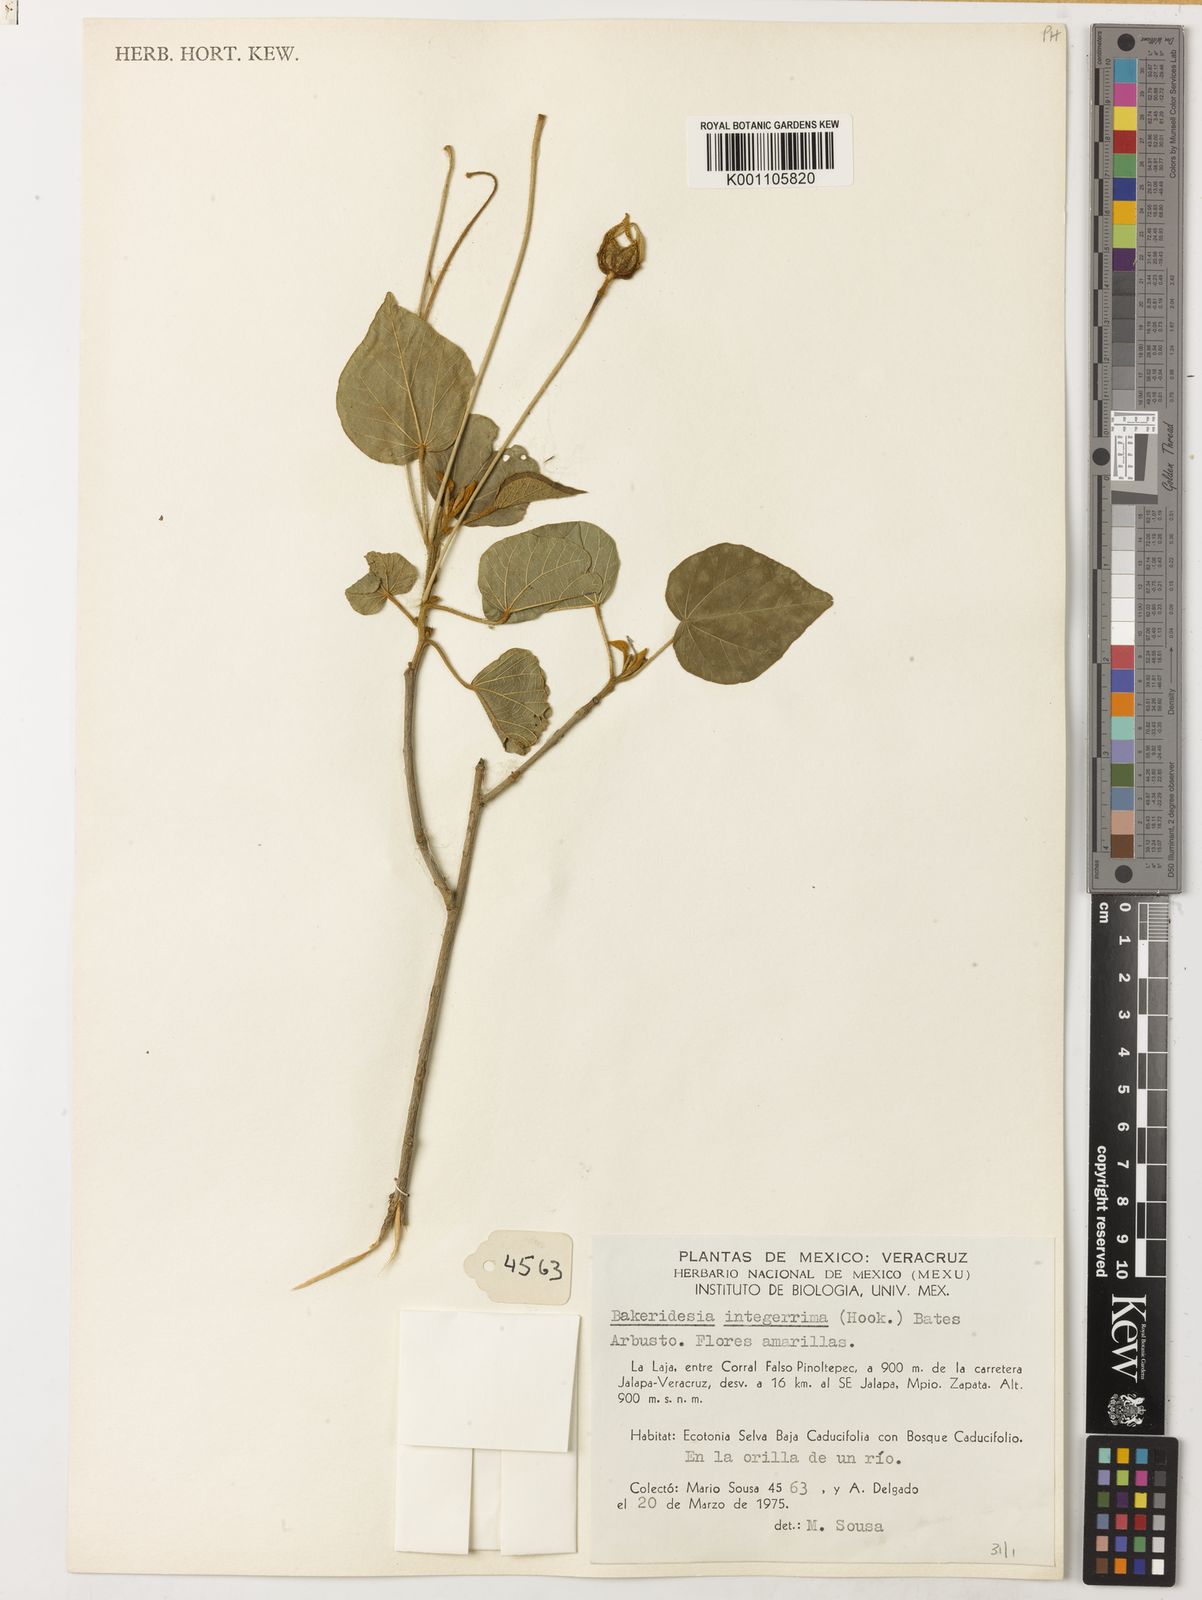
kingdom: Plantae
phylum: Tracheophyta
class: Magnoliopsida
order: Malvales
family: Malvaceae
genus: Bakeridesia
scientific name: Bakeridesia integerrima
